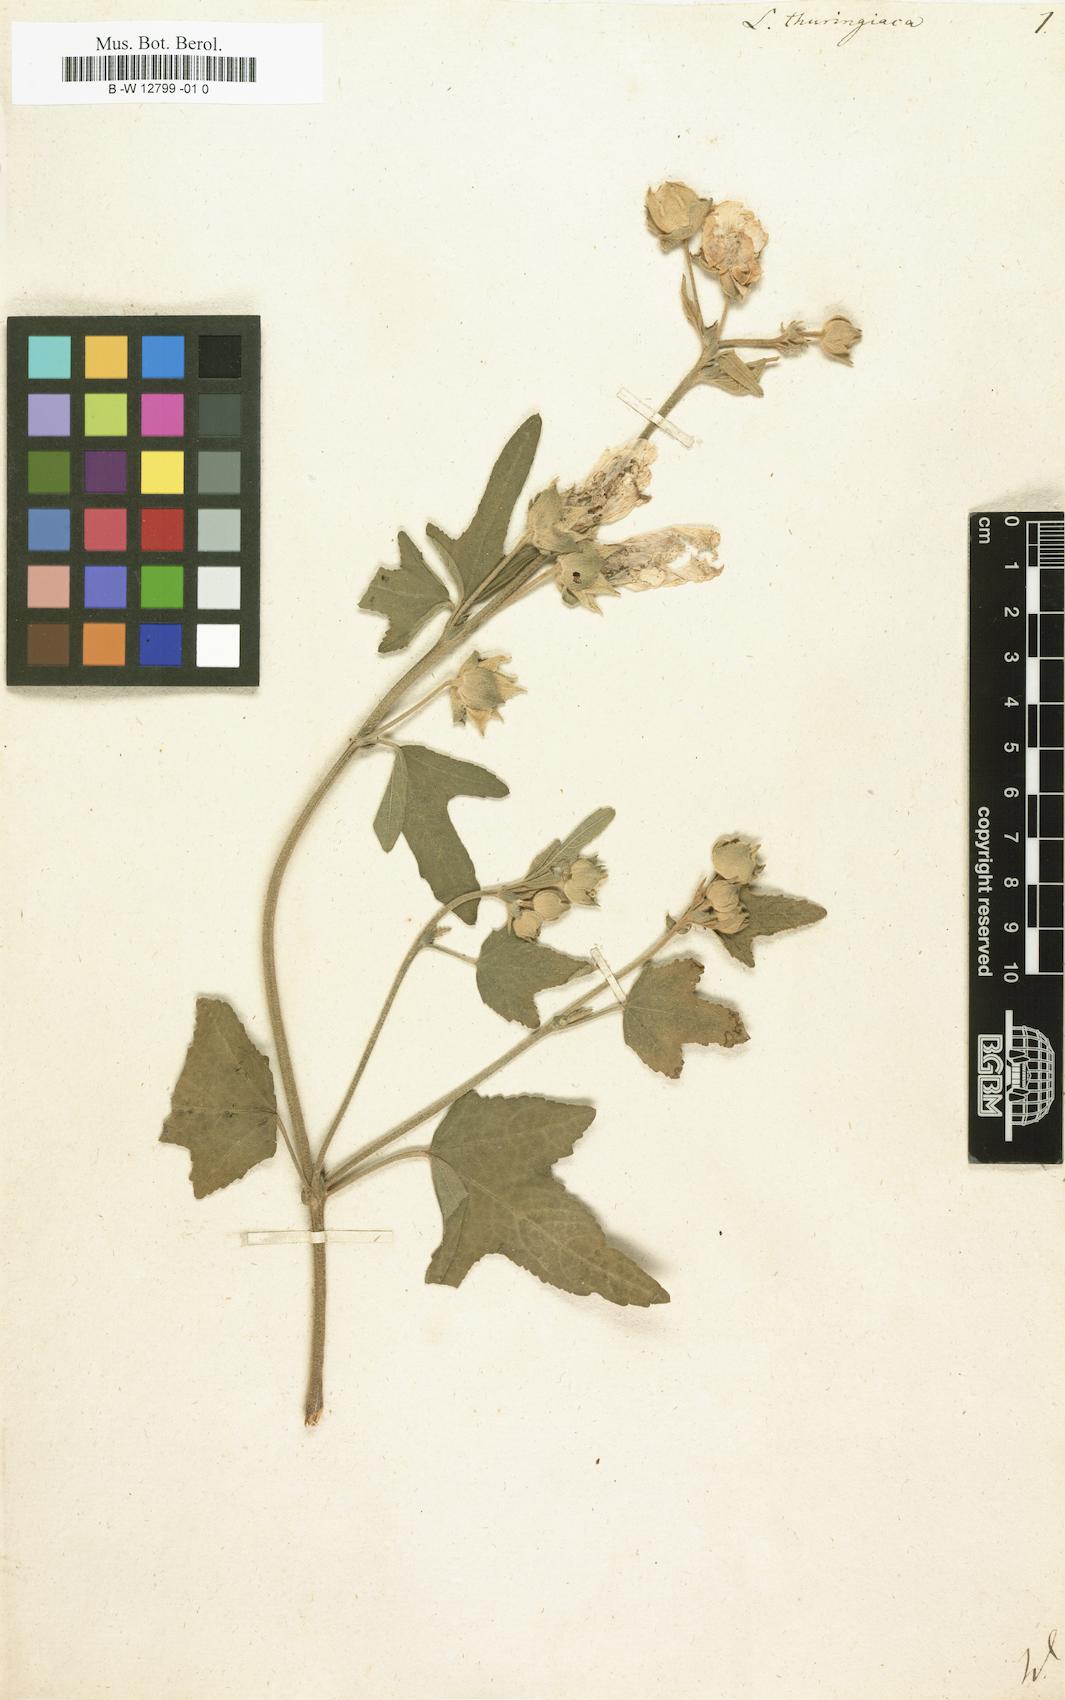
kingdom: Plantae
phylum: Tracheophyta
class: Magnoliopsida
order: Malvales
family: Malvaceae
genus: Malva
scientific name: Malva thuringiaca
